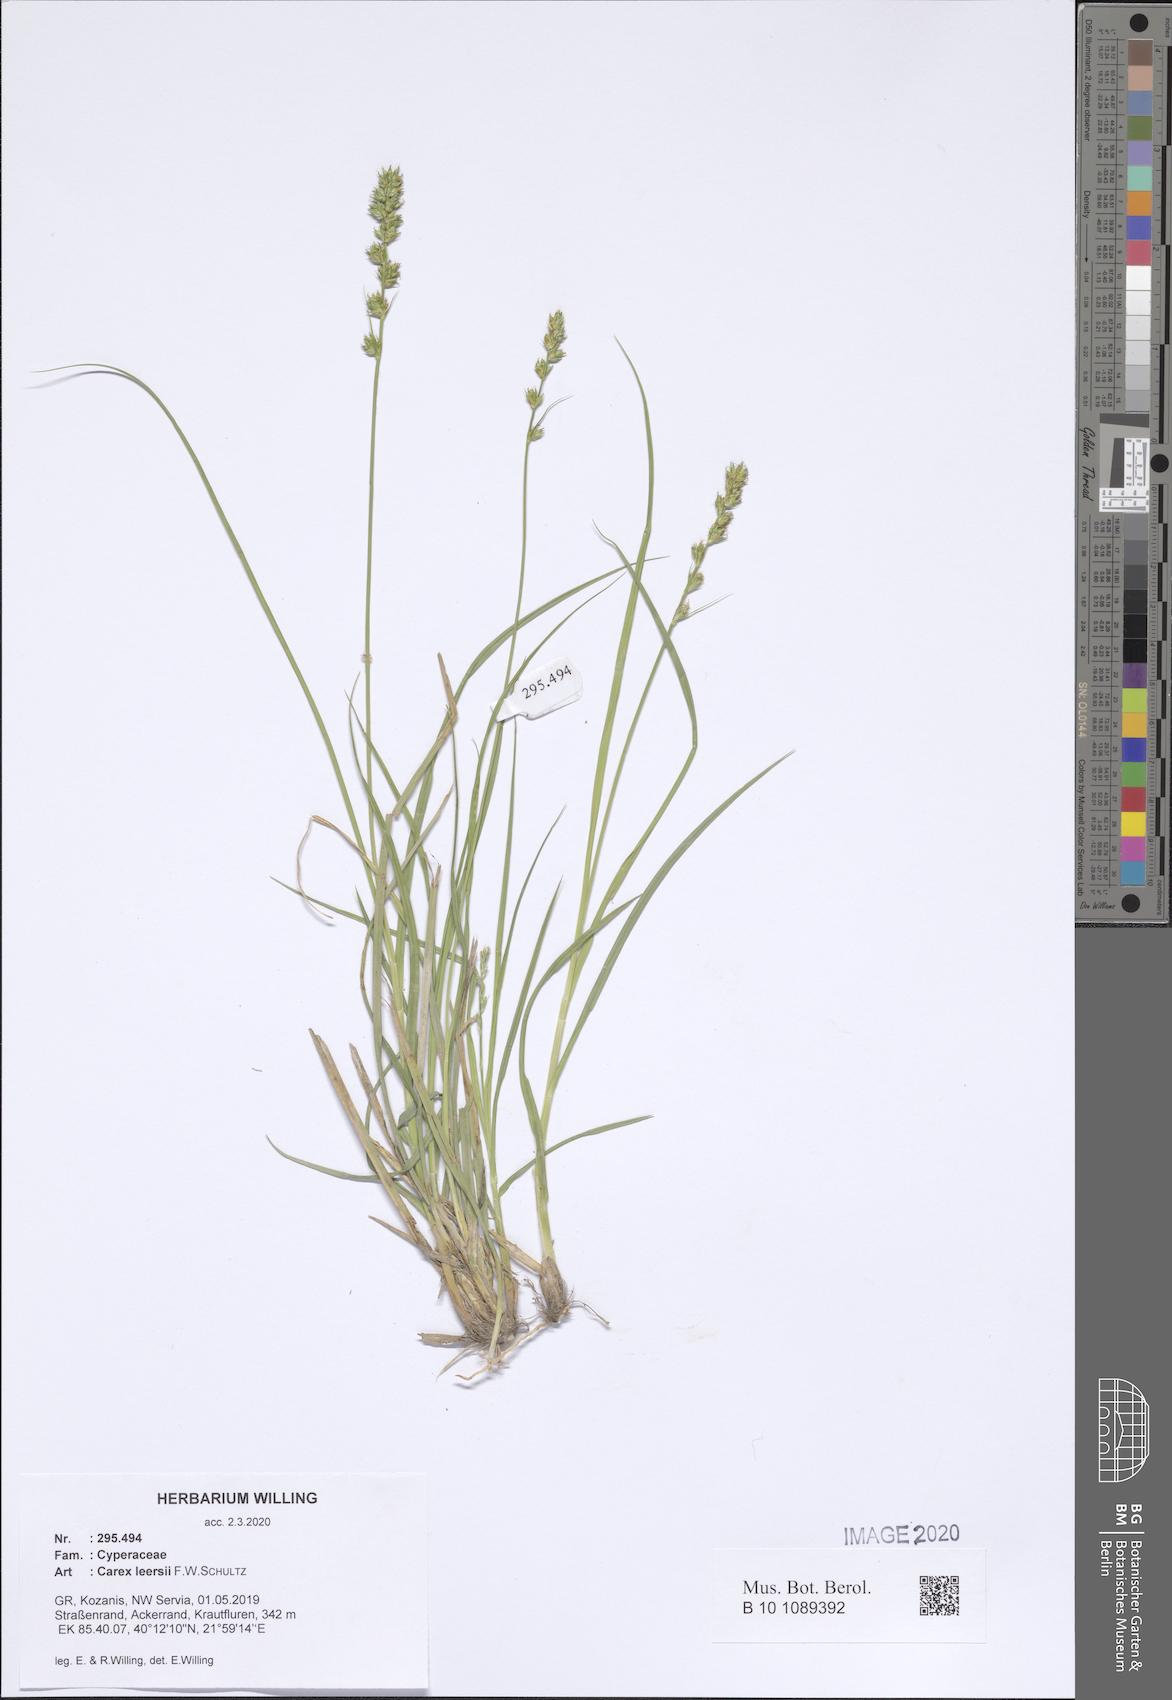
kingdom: Plantae
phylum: Tracheophyta
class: Liliopsida
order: Poales
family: Cyperaceae
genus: Carex
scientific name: Carex leersii
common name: Leers' sedge
